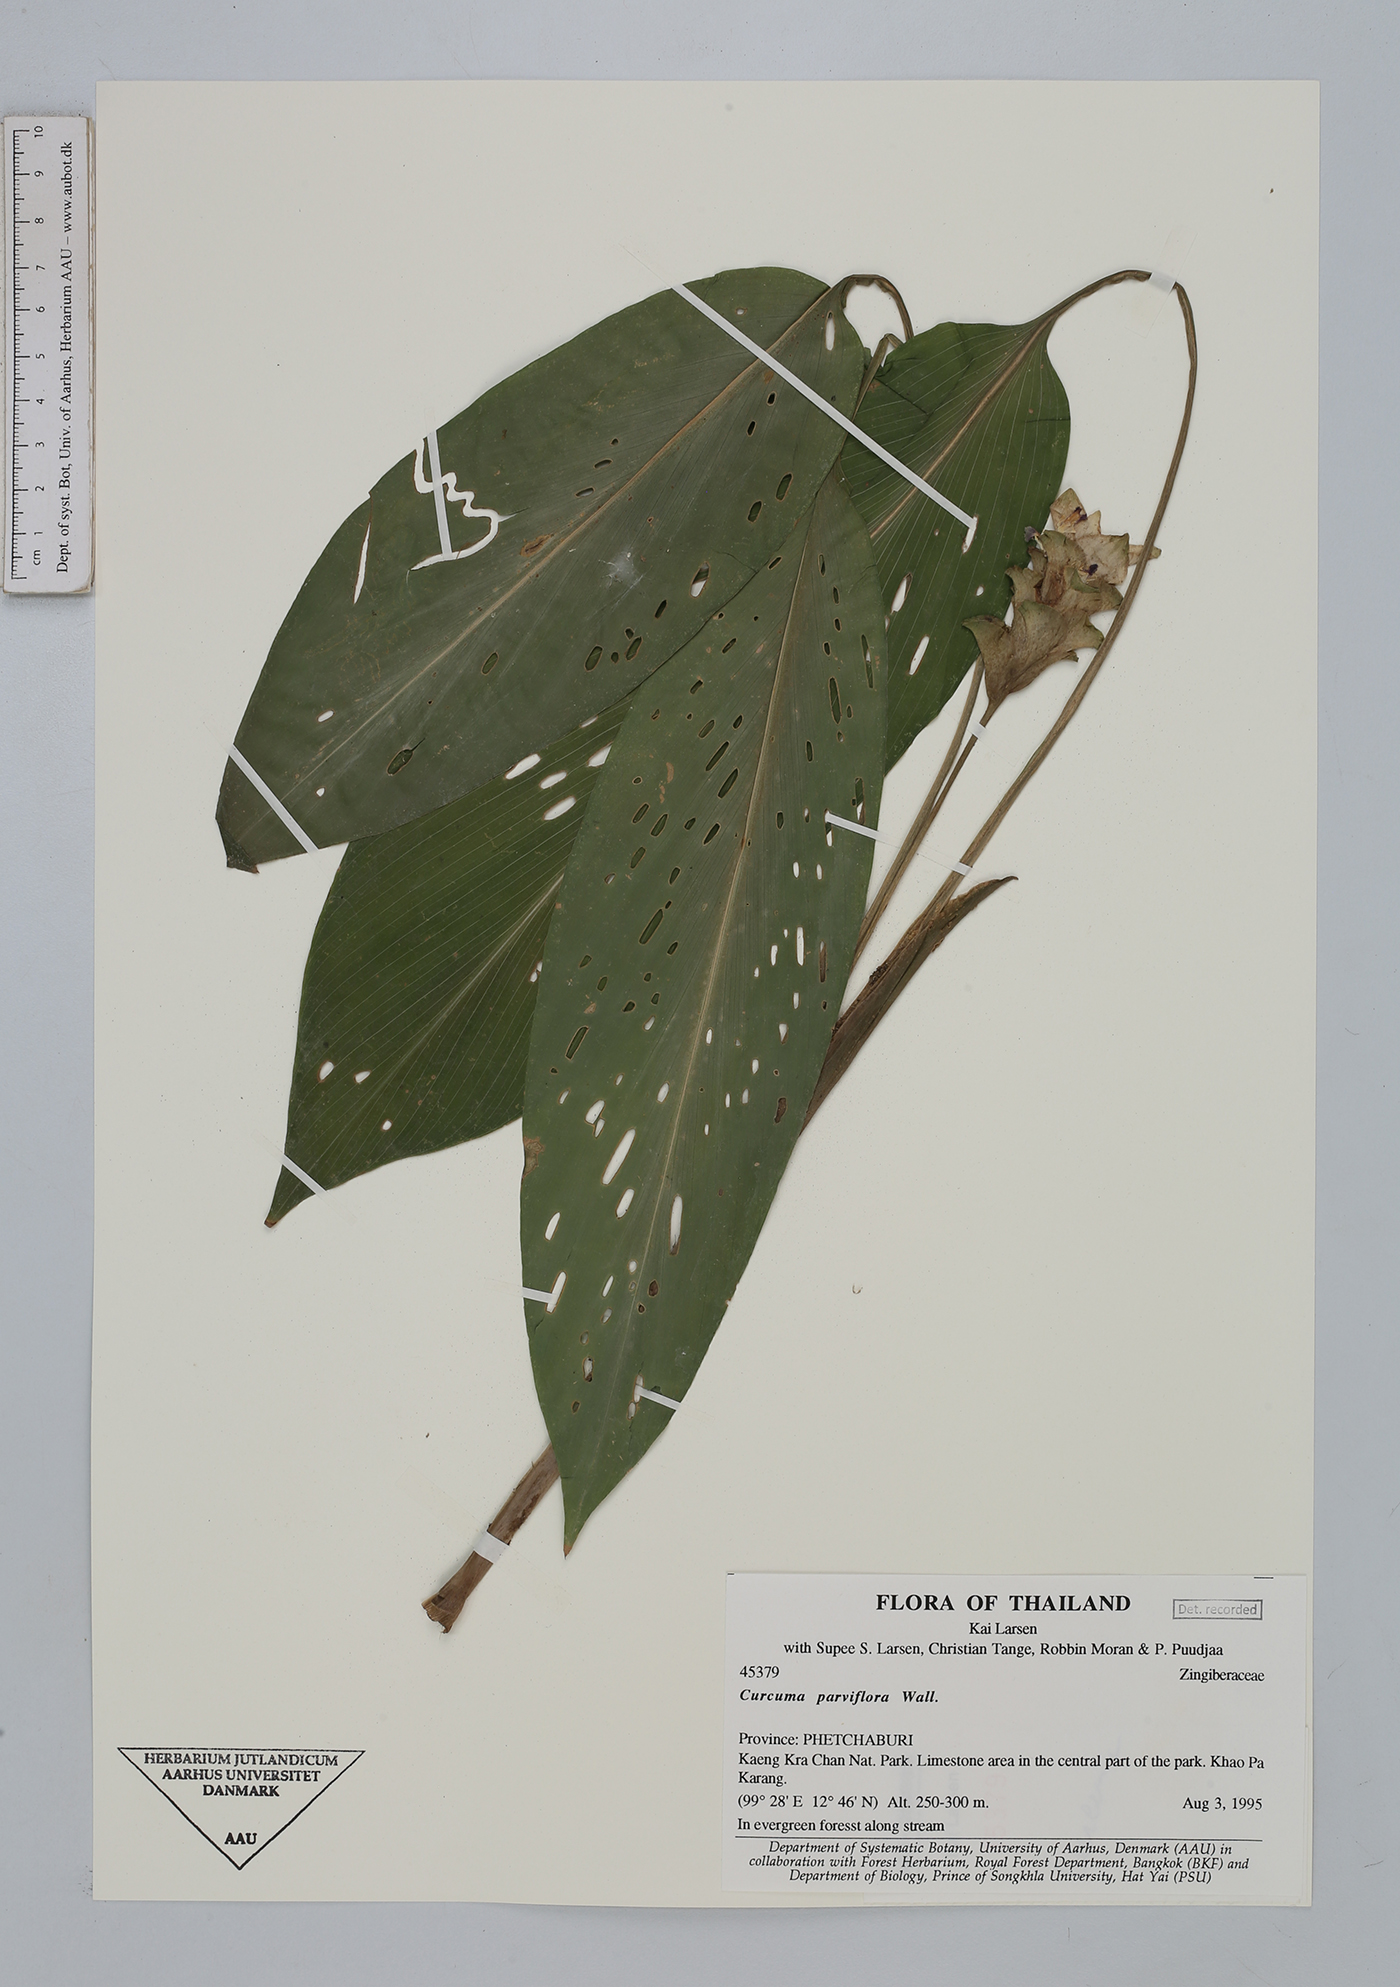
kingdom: Plantae
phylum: Tracheophyta
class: Liliopsida
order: Zingiberales
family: Zingiberaceae
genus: Curcuma
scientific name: Curcuma parviflora
